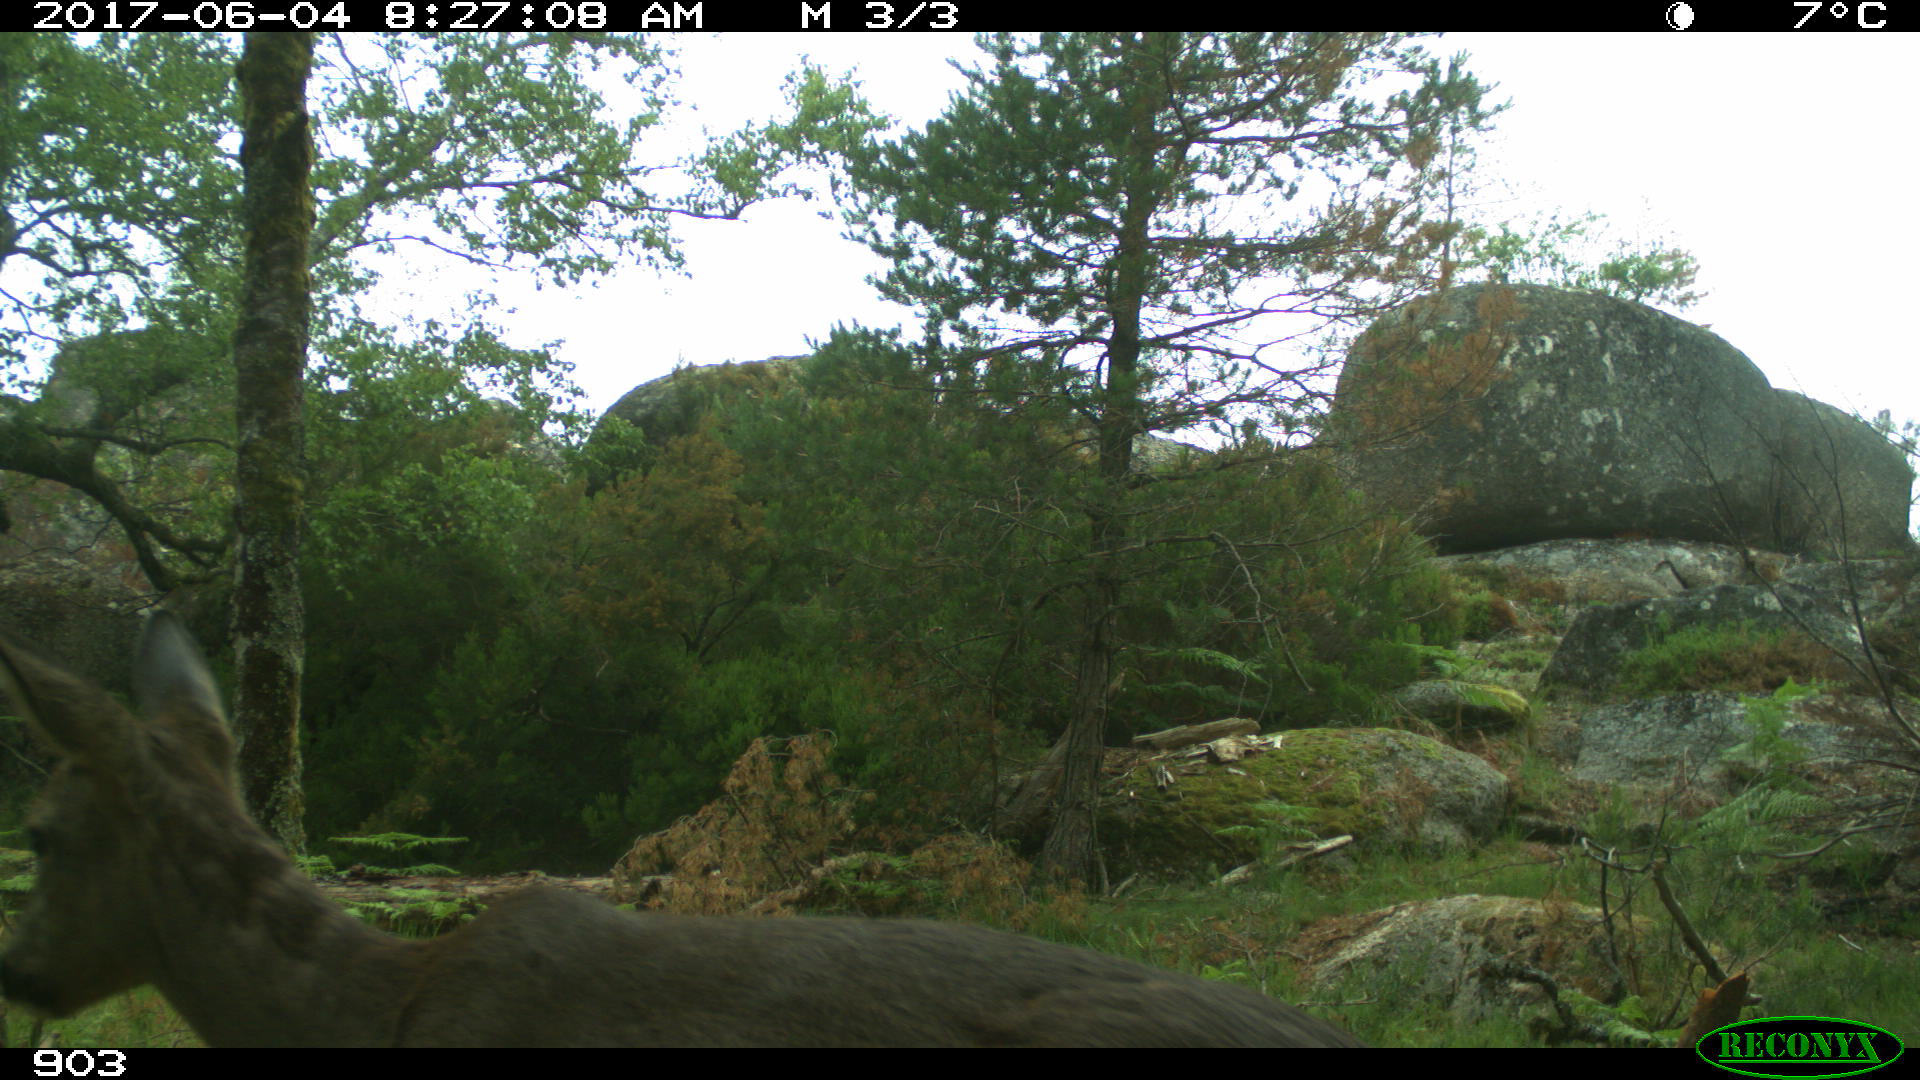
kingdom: Animalia
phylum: Chordata
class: Mammalia
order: Artiodactyla
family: Cervidae
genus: Capreolus
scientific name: Capreolus capreolus
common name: Western roe deer
